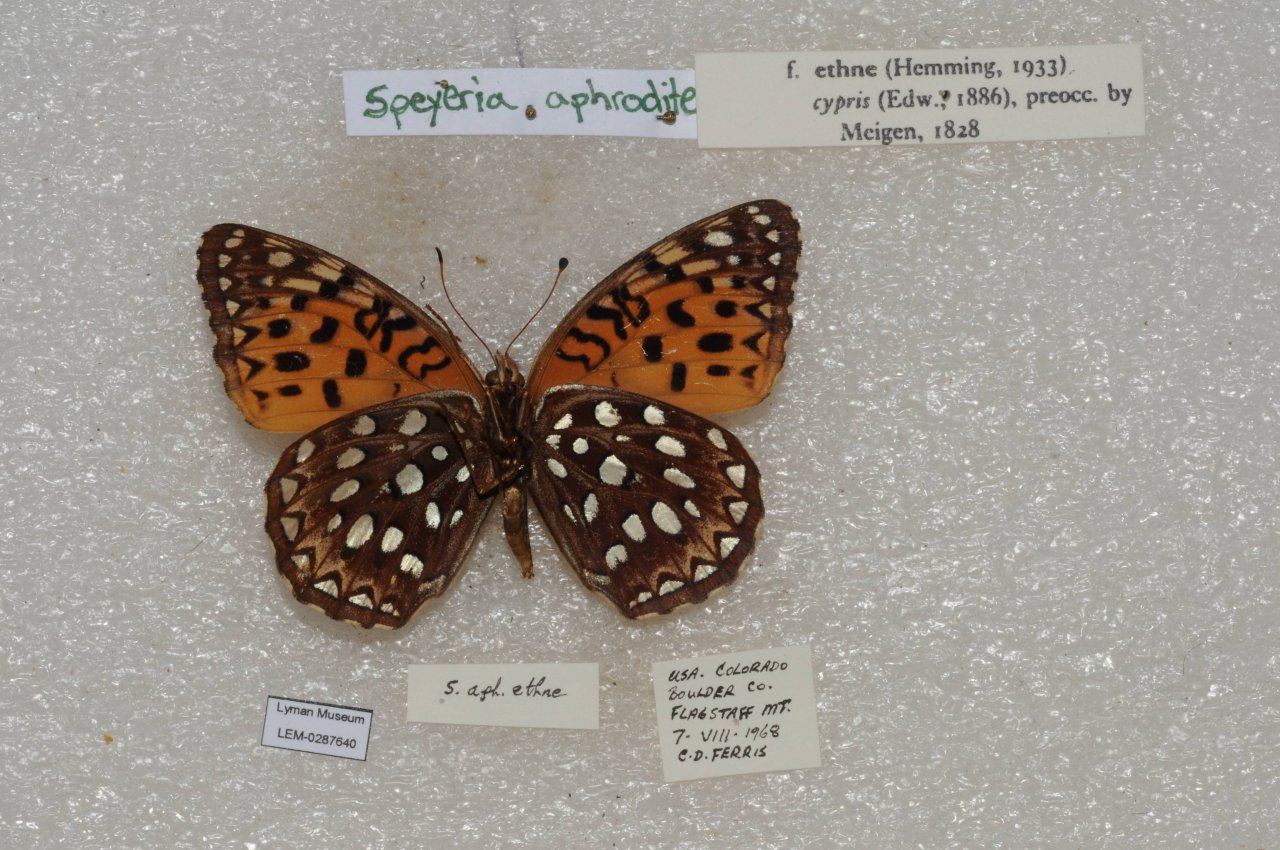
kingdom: Animalia
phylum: Arthropoda
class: Insecta
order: Lepidoptera
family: Nymphalidae
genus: Speyeria
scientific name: Speyeria aphrodite
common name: Aphrodite Fritillary
